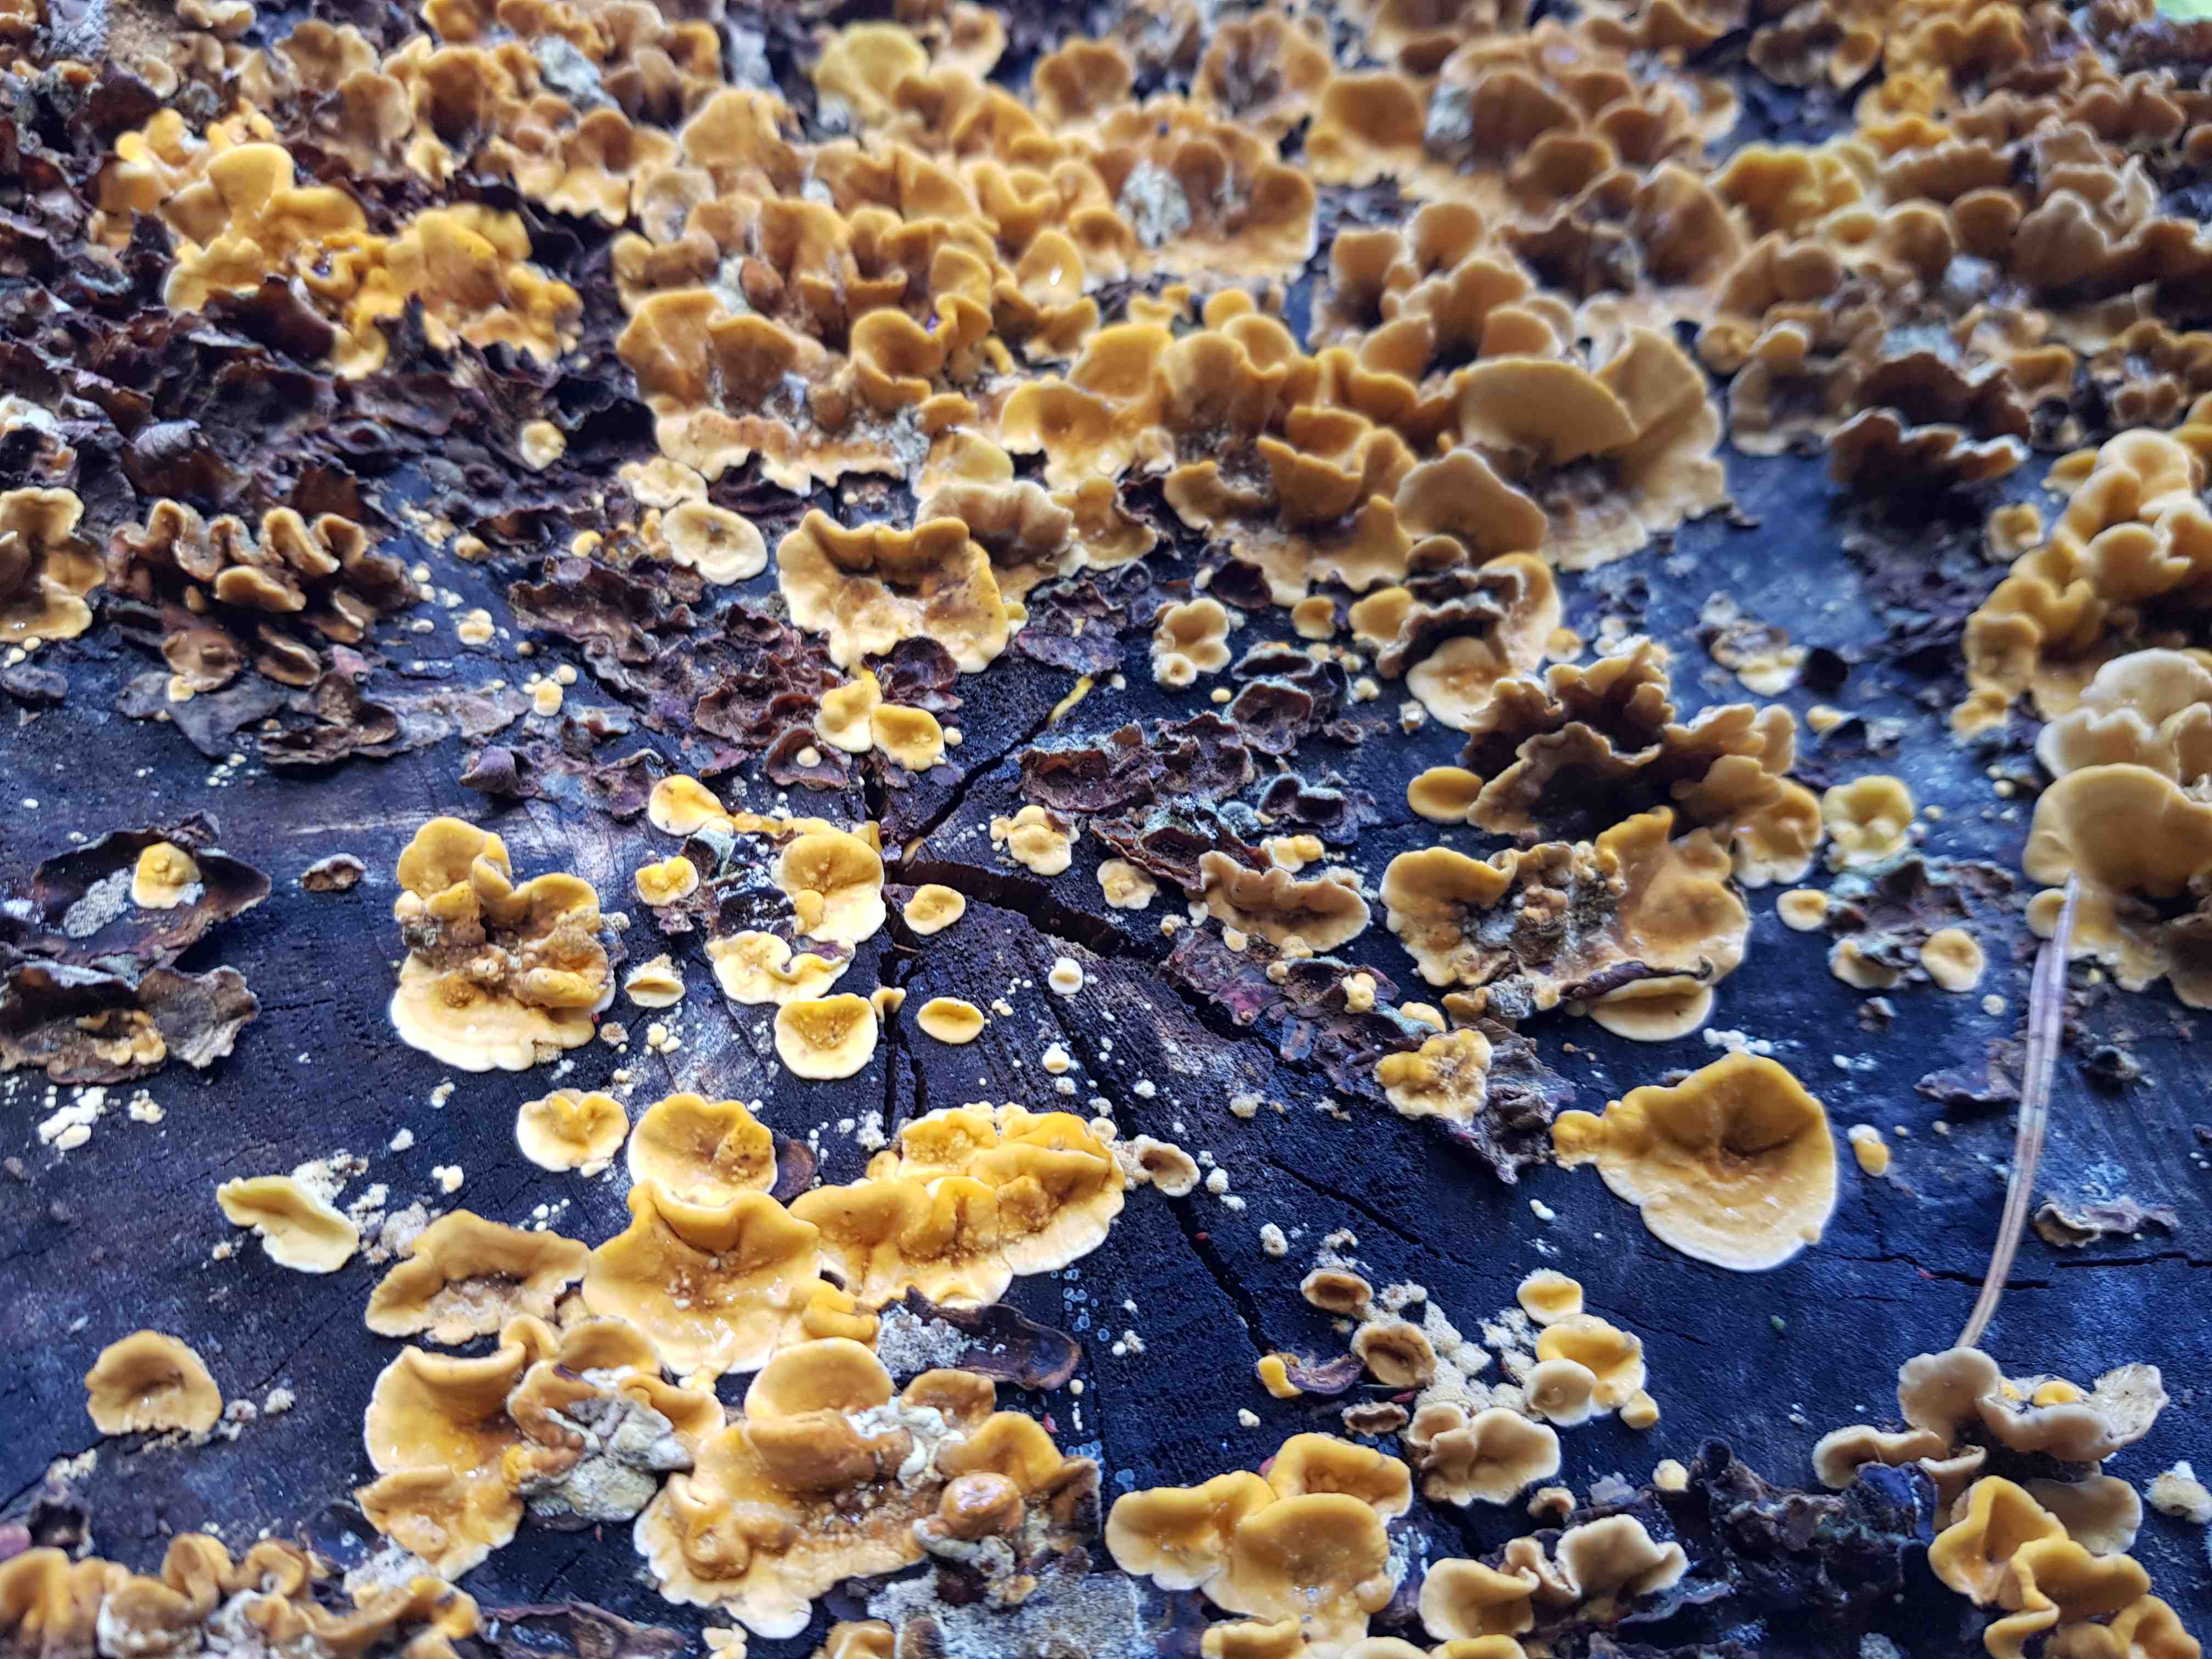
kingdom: Fungi
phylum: Basidiomycota
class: Agaricomycetes
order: Russulales
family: Stereaceae
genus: Stereum
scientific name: Stereum hirsutum
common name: håret lædersvamp
